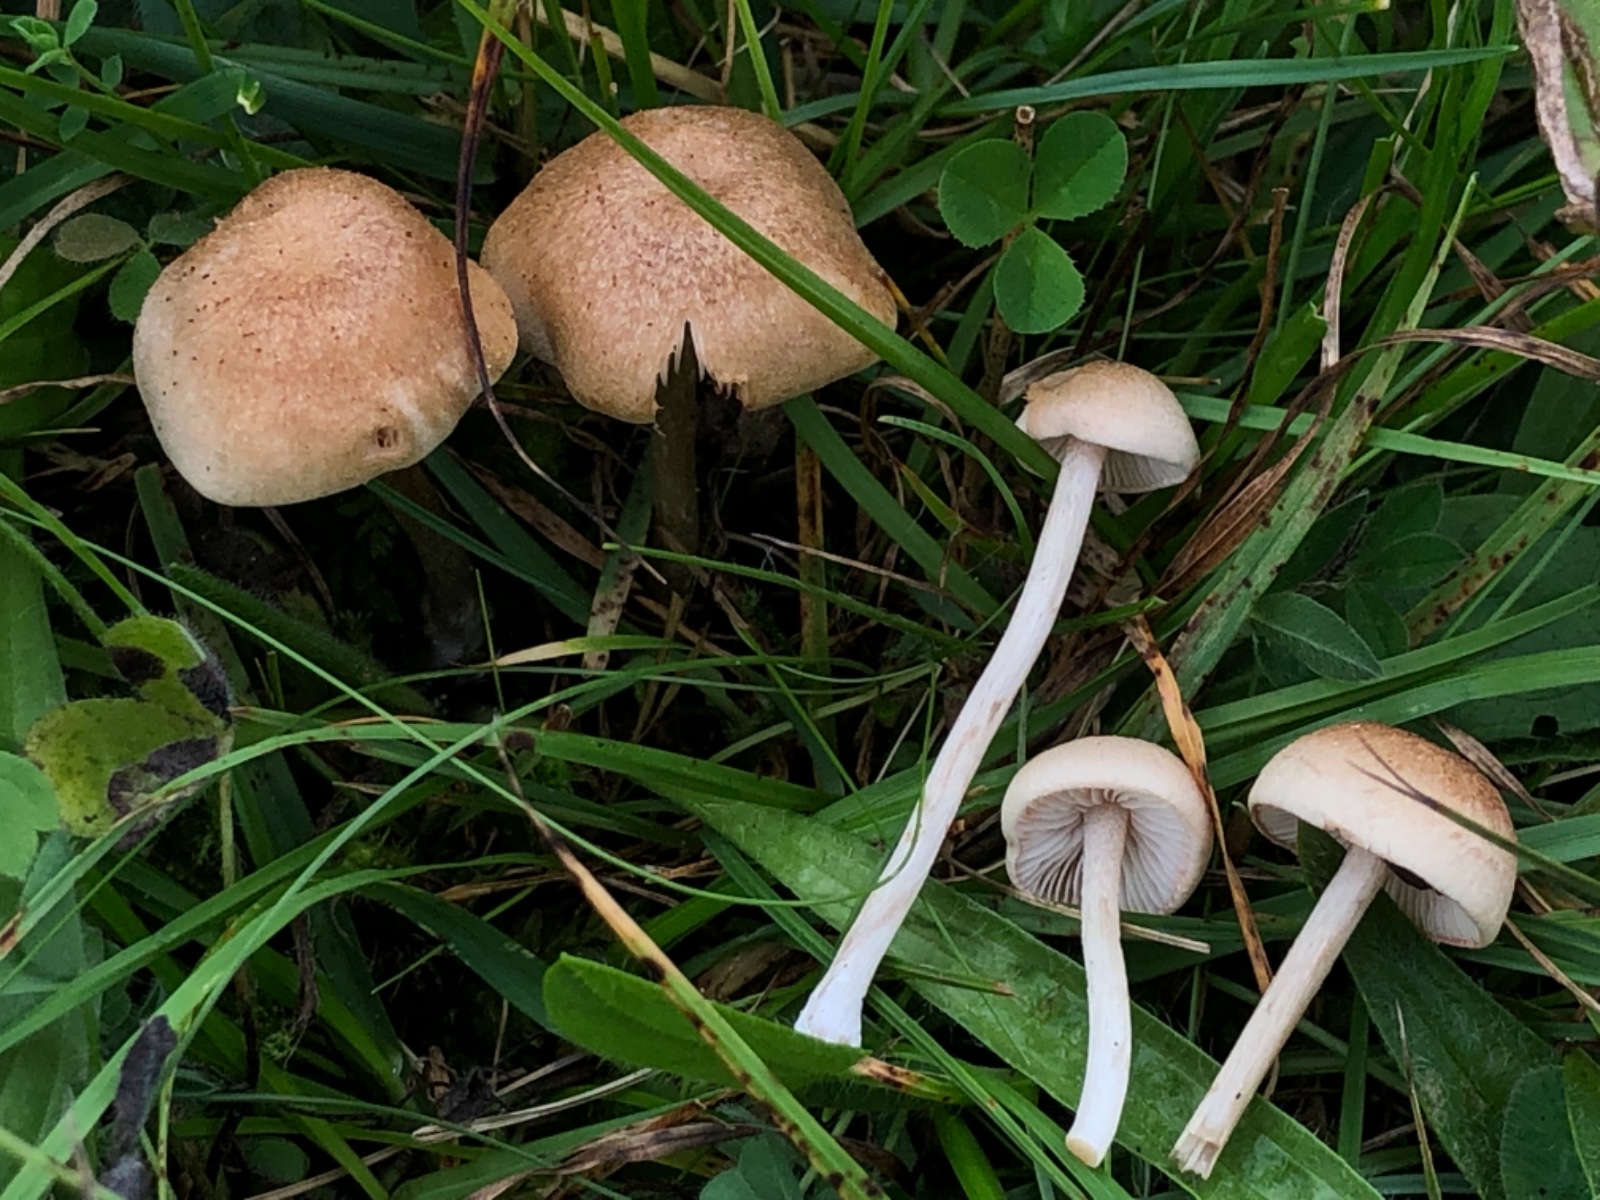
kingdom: Fungi
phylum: Basidiomycota
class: Agaricomycetes
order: Agaricales
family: Entolomataceae
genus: Entoloma
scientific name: Entoloma queletii
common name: rosalilla rødblad
